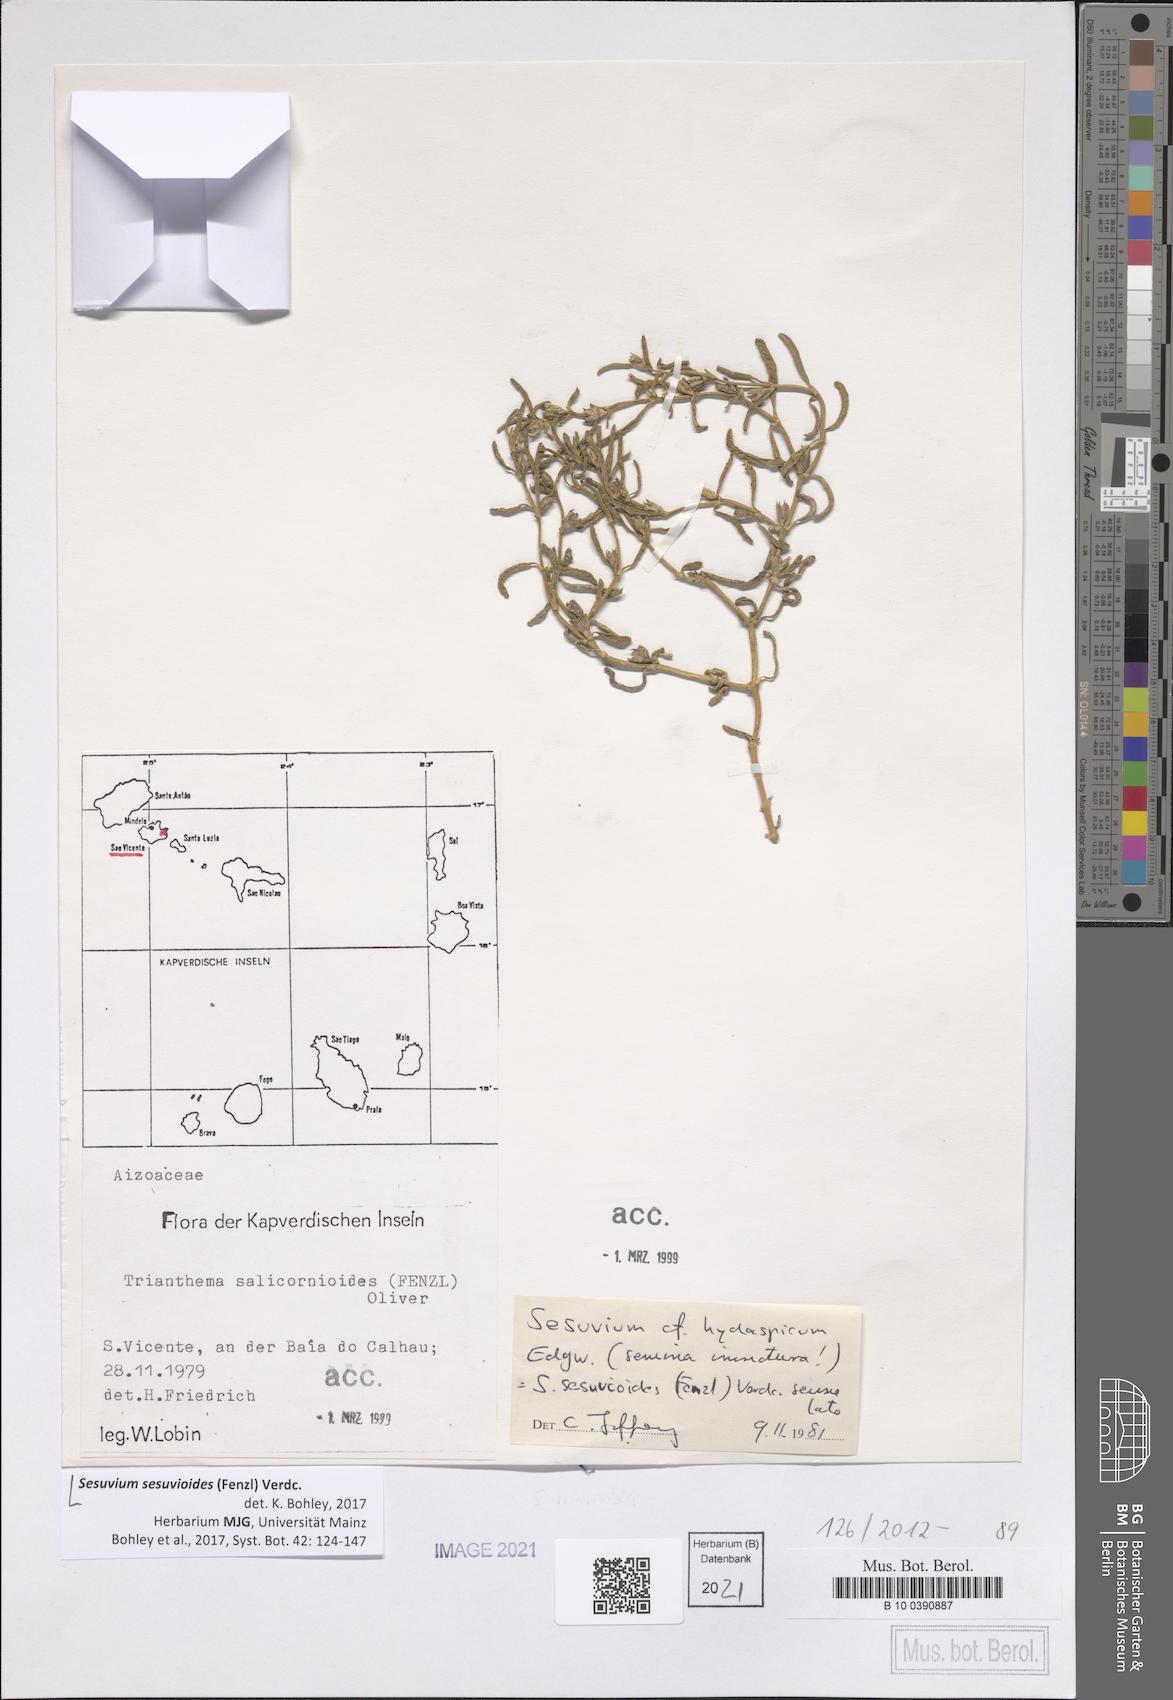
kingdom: Plantae
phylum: Tracheophyta
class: Magnoliopsida
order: Caryophyllales
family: Aizoaceae
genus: Sesuvium
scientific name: Sesuvium sesuvioides
